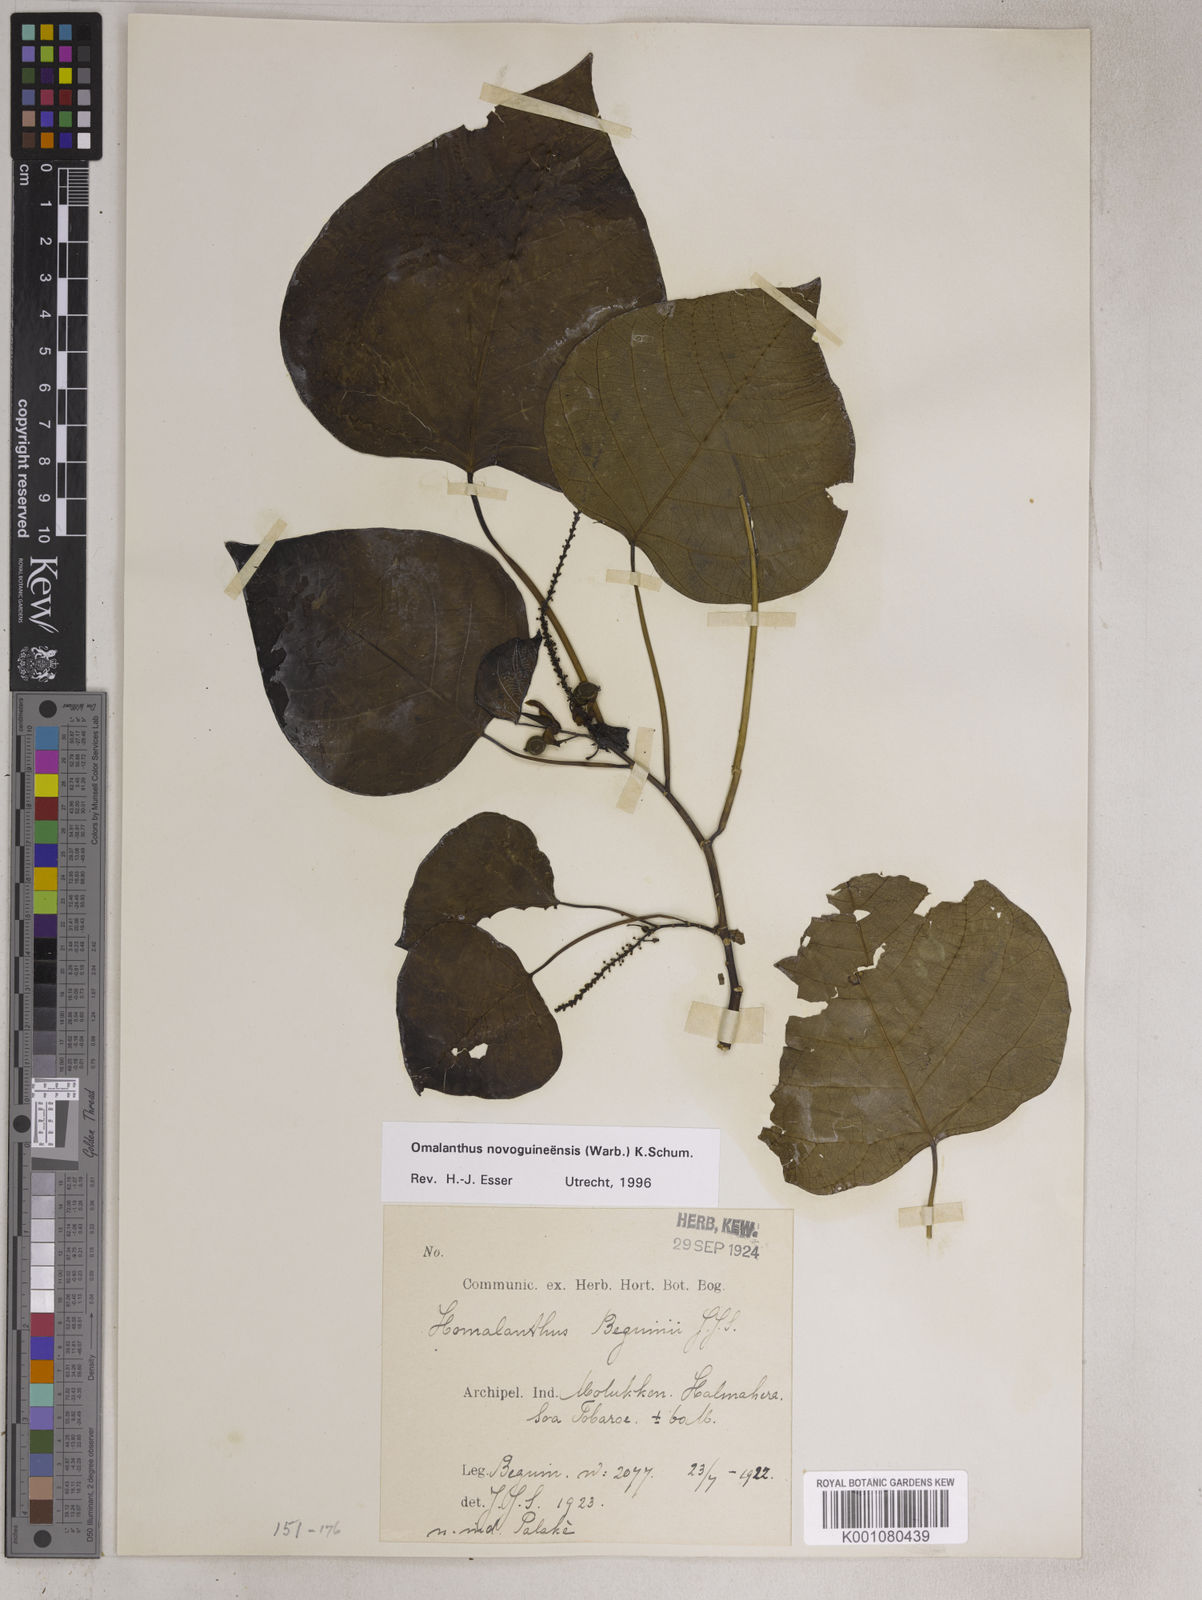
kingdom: Plantae
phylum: Tracheophyta
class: Magnoliopsida
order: Malpighiales
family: Euphorbiaceae
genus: Homalanthus
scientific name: Homalanthus novoguineensis
